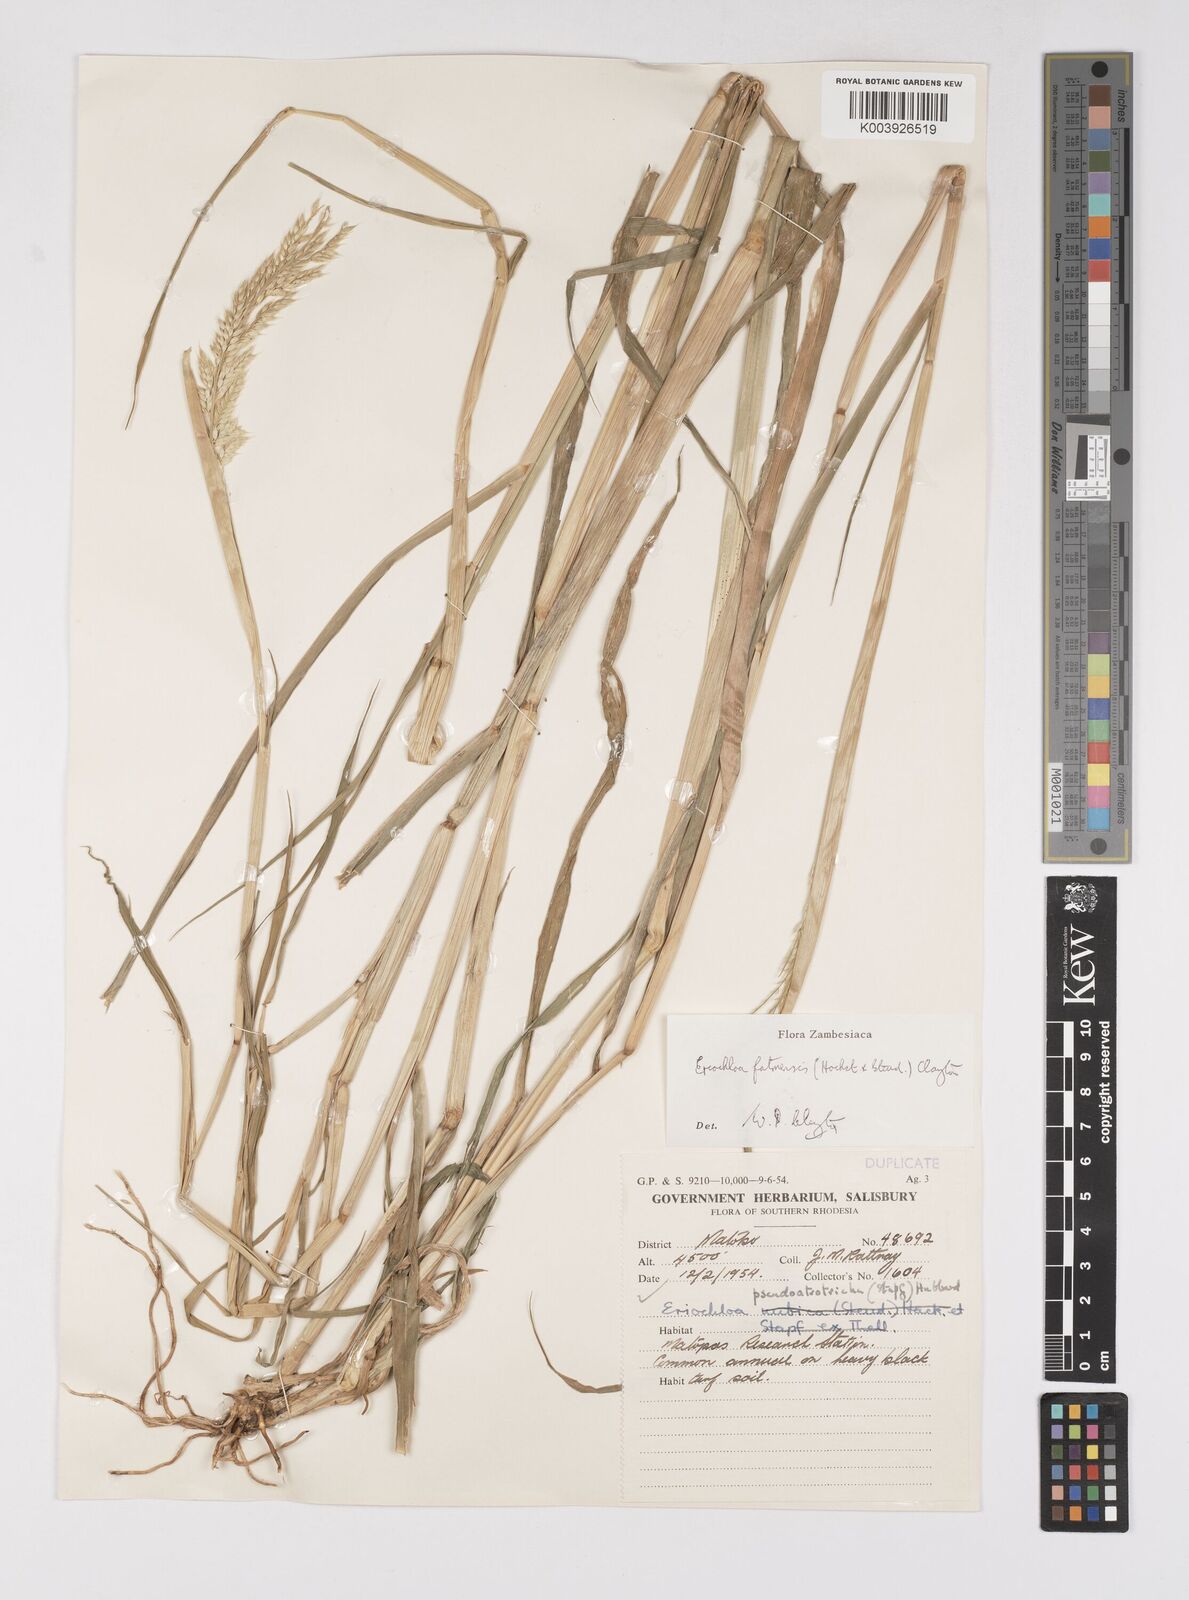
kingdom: Plantae
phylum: Tracheophyta
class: Liliopsida
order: Poales
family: Poaceae
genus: Eriochloa
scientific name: Eriochloa barbatus
